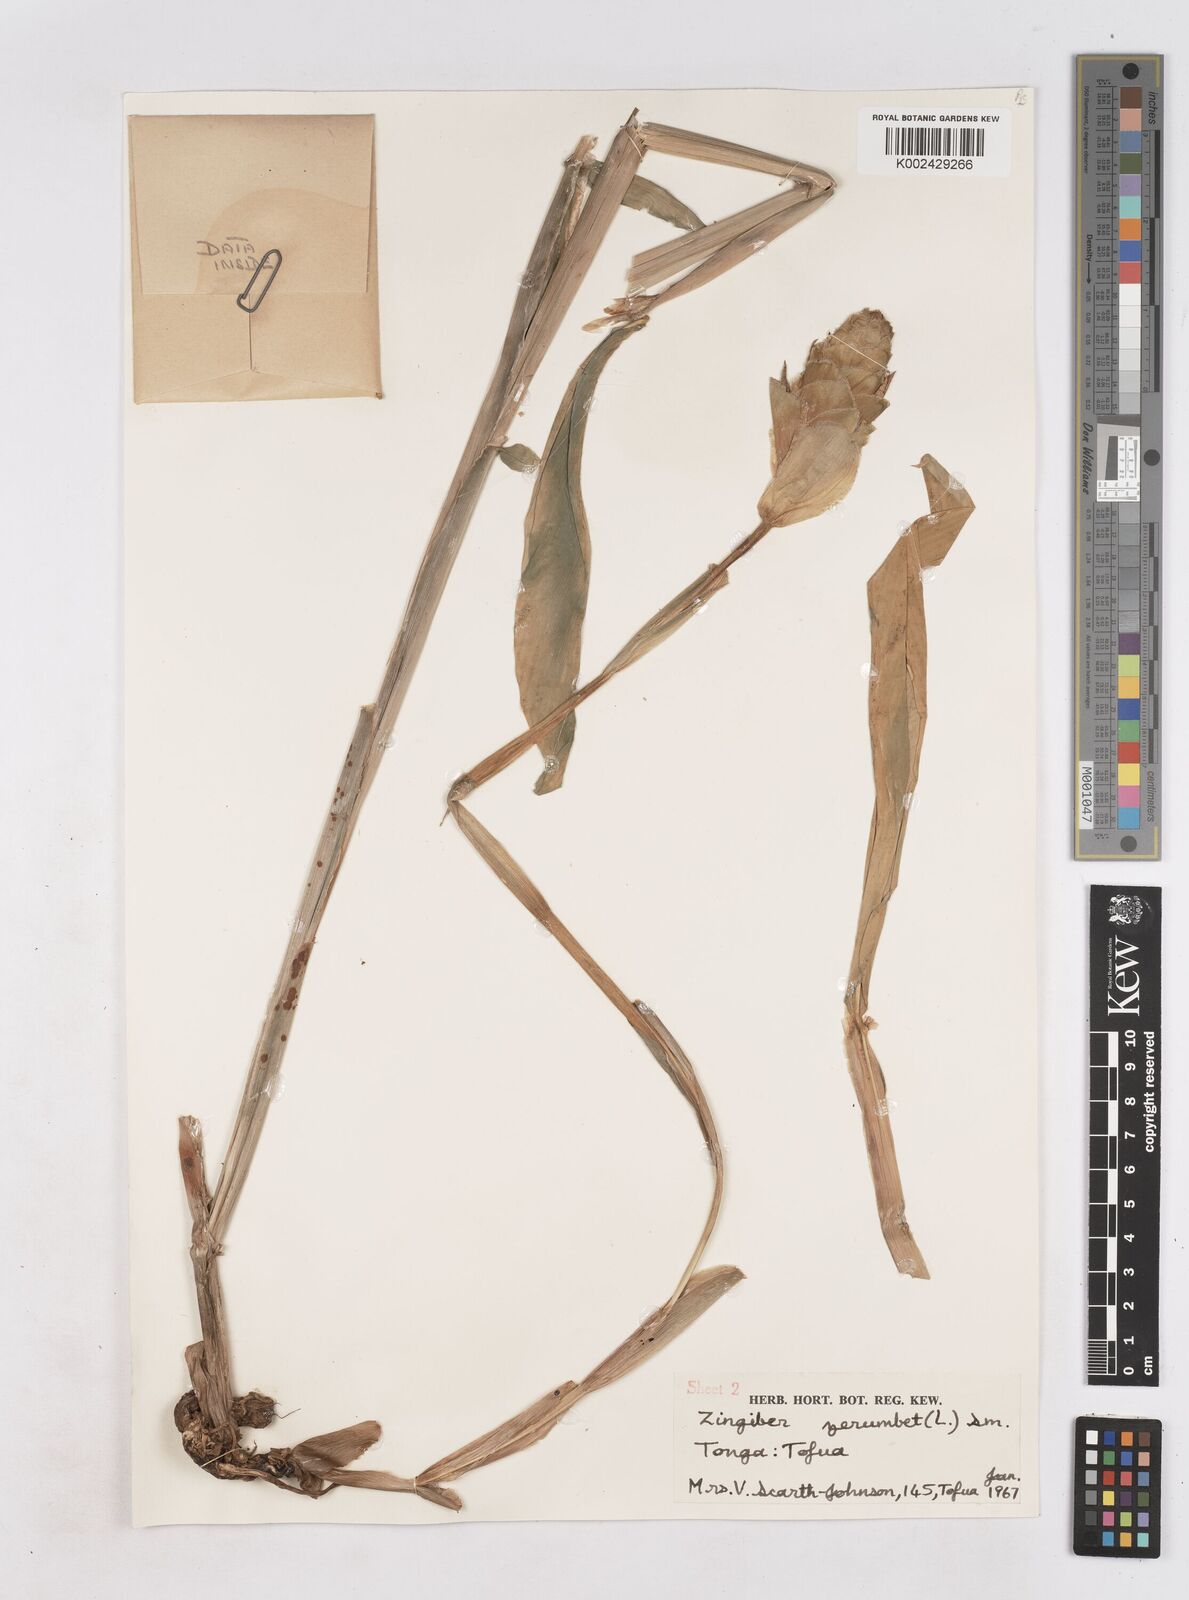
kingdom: Plantae
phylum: Tracheophyta
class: Liliopsida
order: Zingiberales
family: Zingiberaceae
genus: Zingiber
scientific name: Zingiber zerumbet
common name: Bitter ginger
